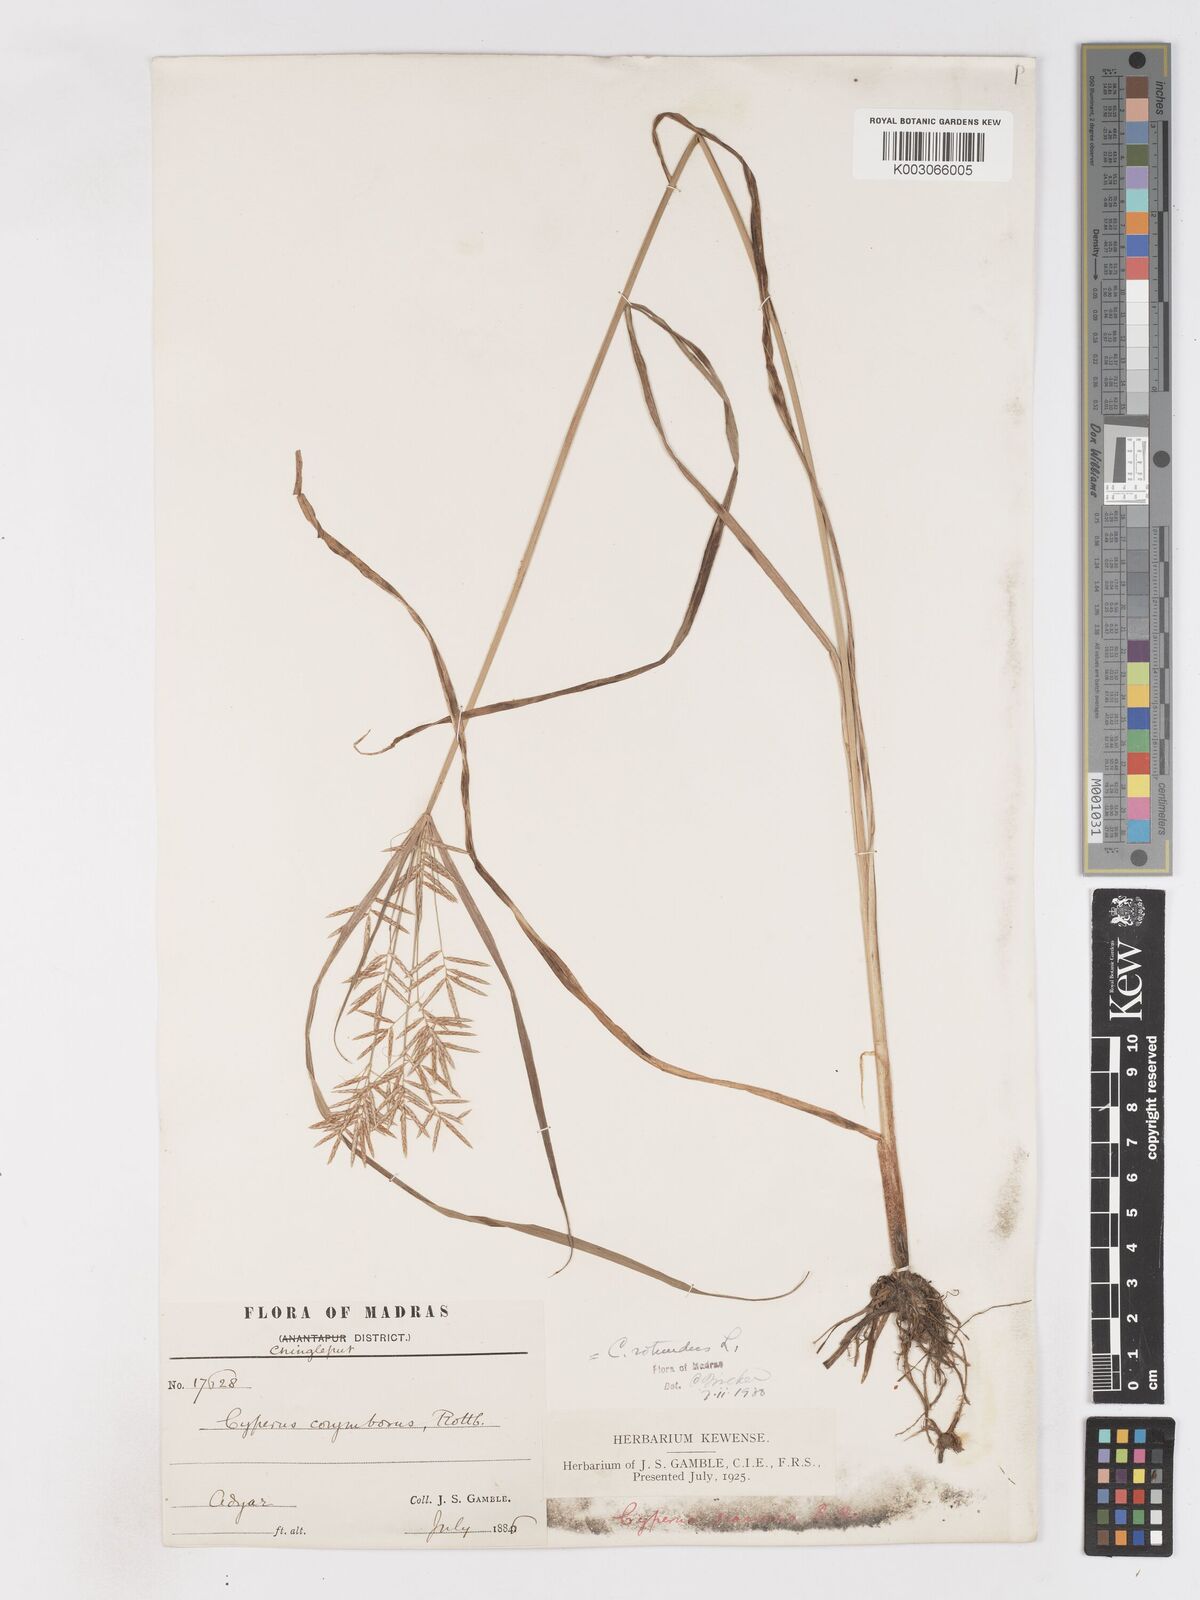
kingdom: Plantae
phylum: Tracheophyta
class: Liliopsida
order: Poales
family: Cyperaceae
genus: Cyperus
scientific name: Cyperus mitis
